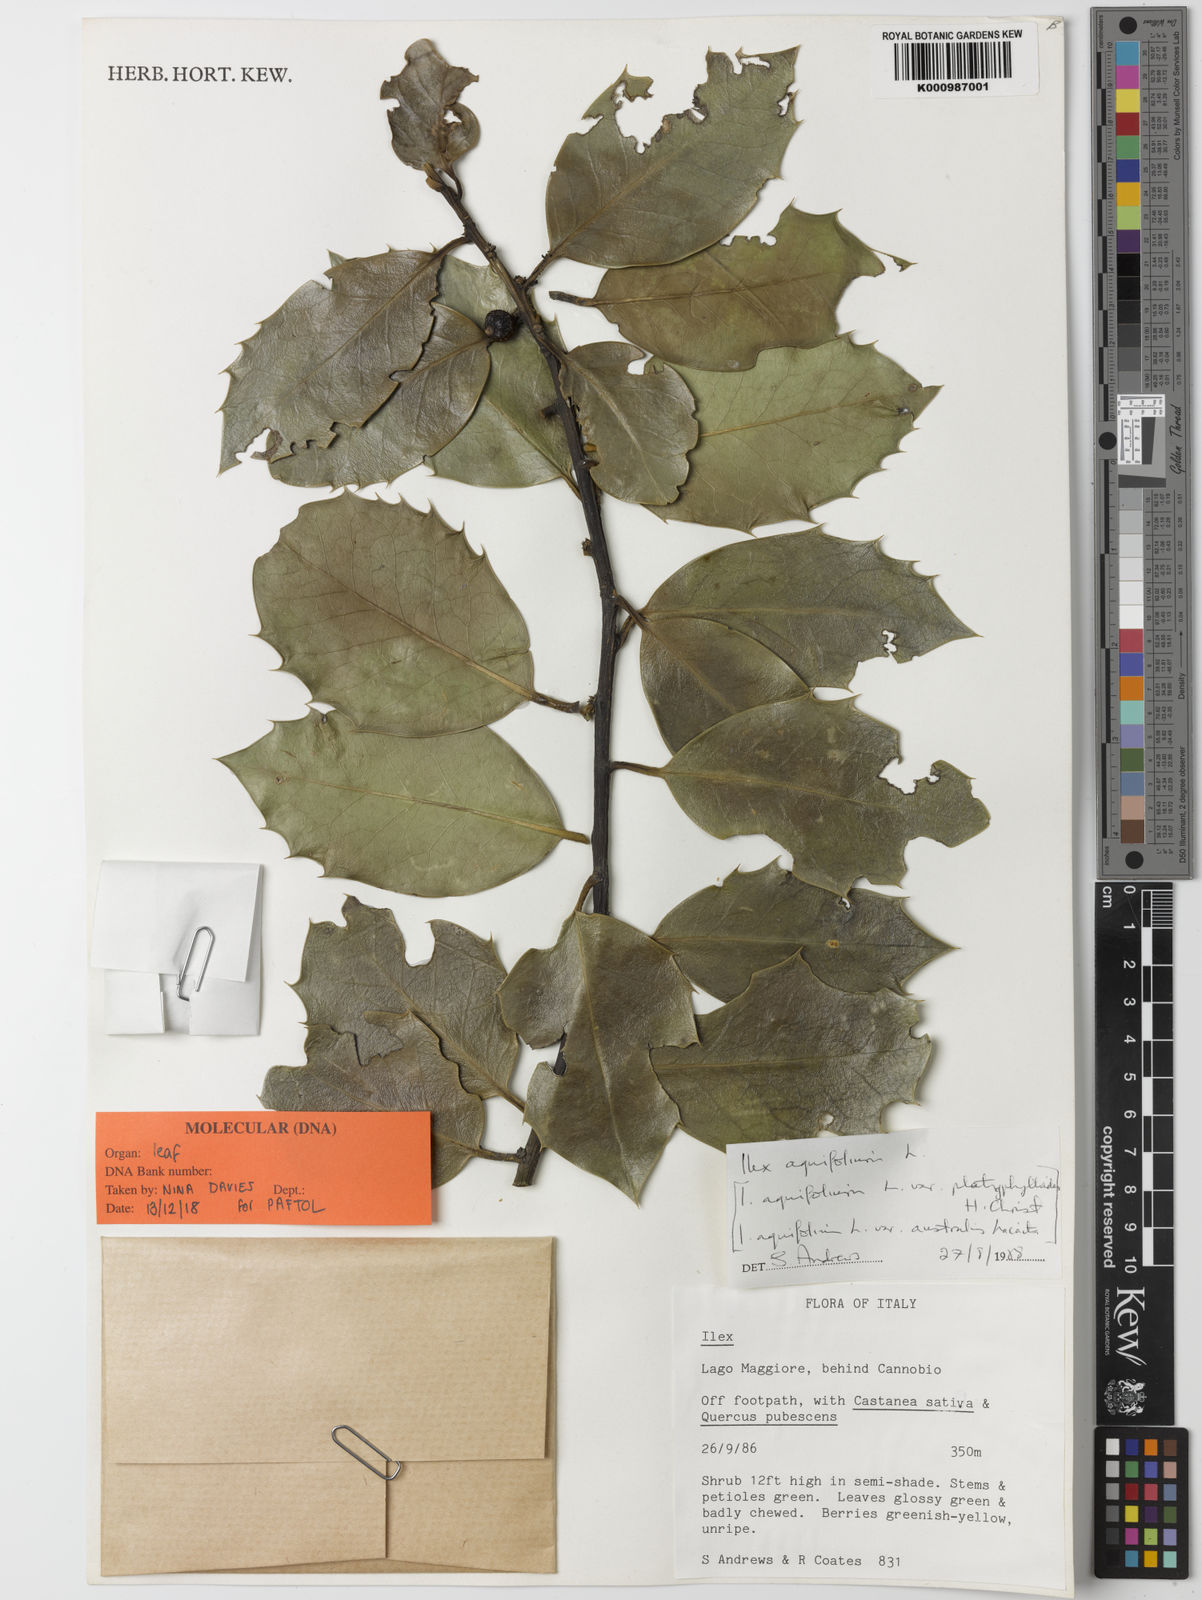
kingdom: Plantae
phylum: Tracheophyta
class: Magnoliopsida
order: Aquifoliales
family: Aquifoliaceae
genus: Ilex
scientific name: Ilex aquifolium
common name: English holly
